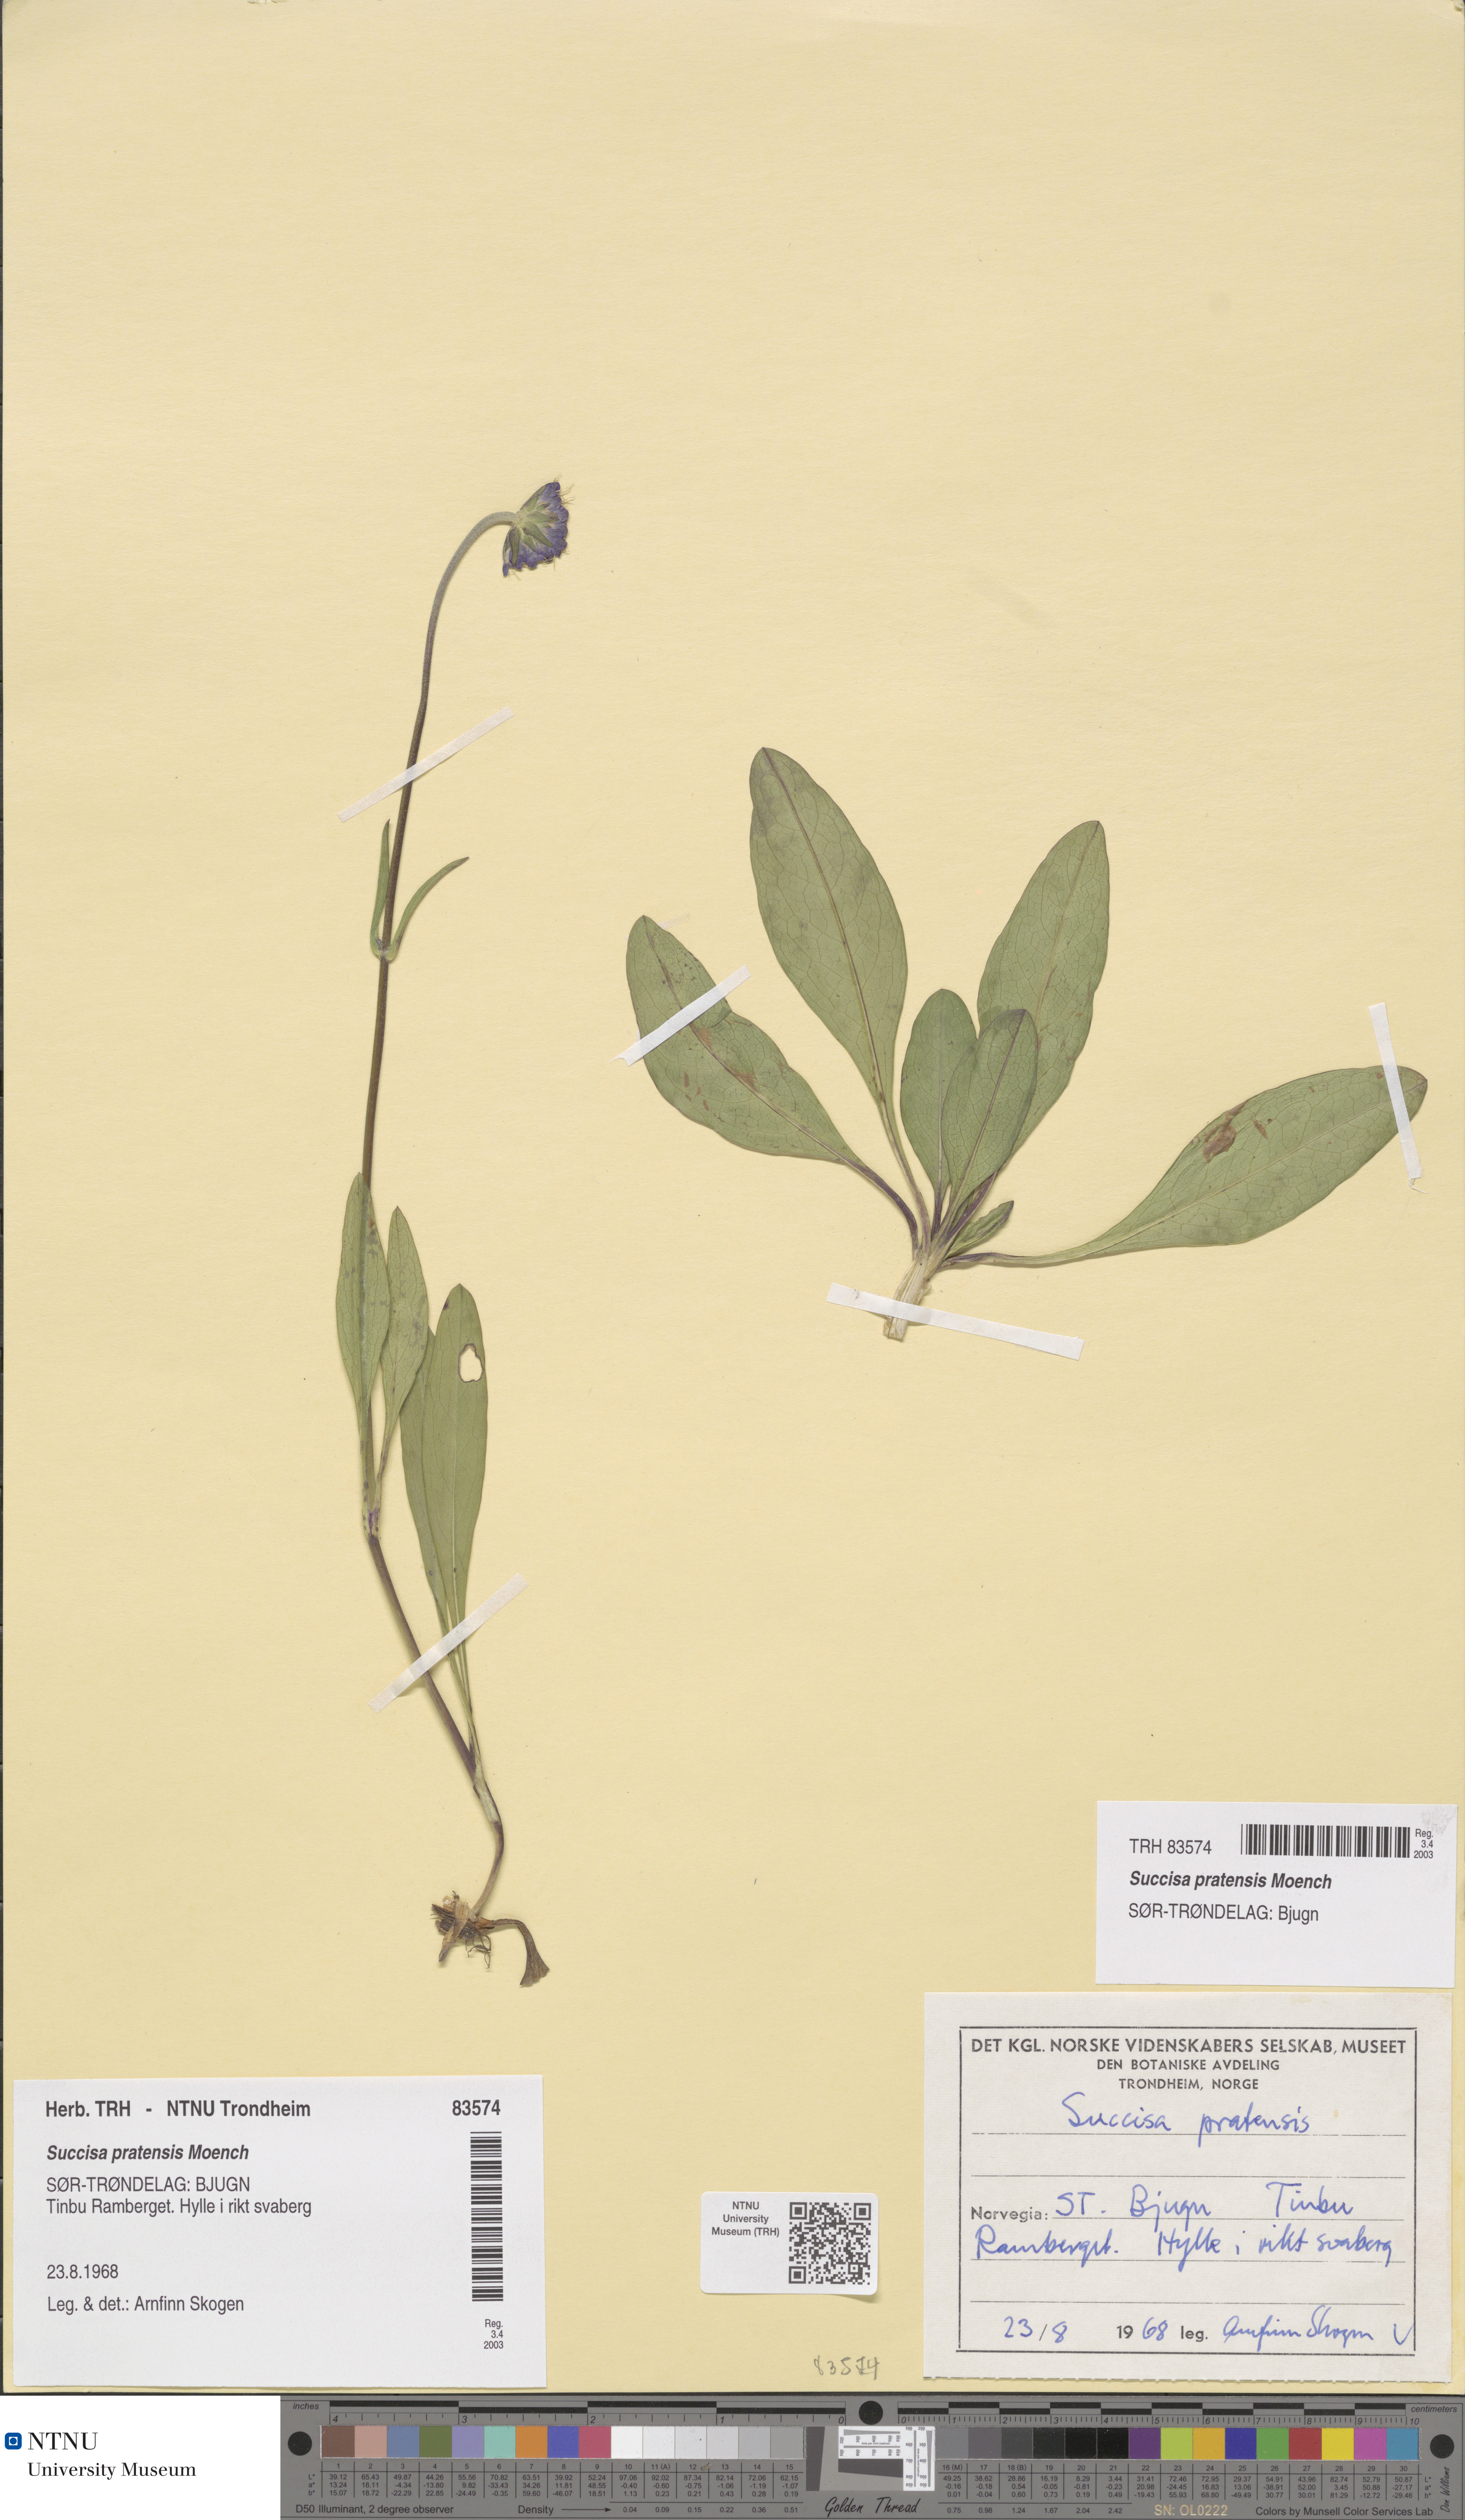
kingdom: Plantae
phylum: Tracheophyta
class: Magnoliopsida
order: Dipsacales
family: Caprifoliaceae
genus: Succisa
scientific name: Succisa pratensis
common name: Devil's-bit
